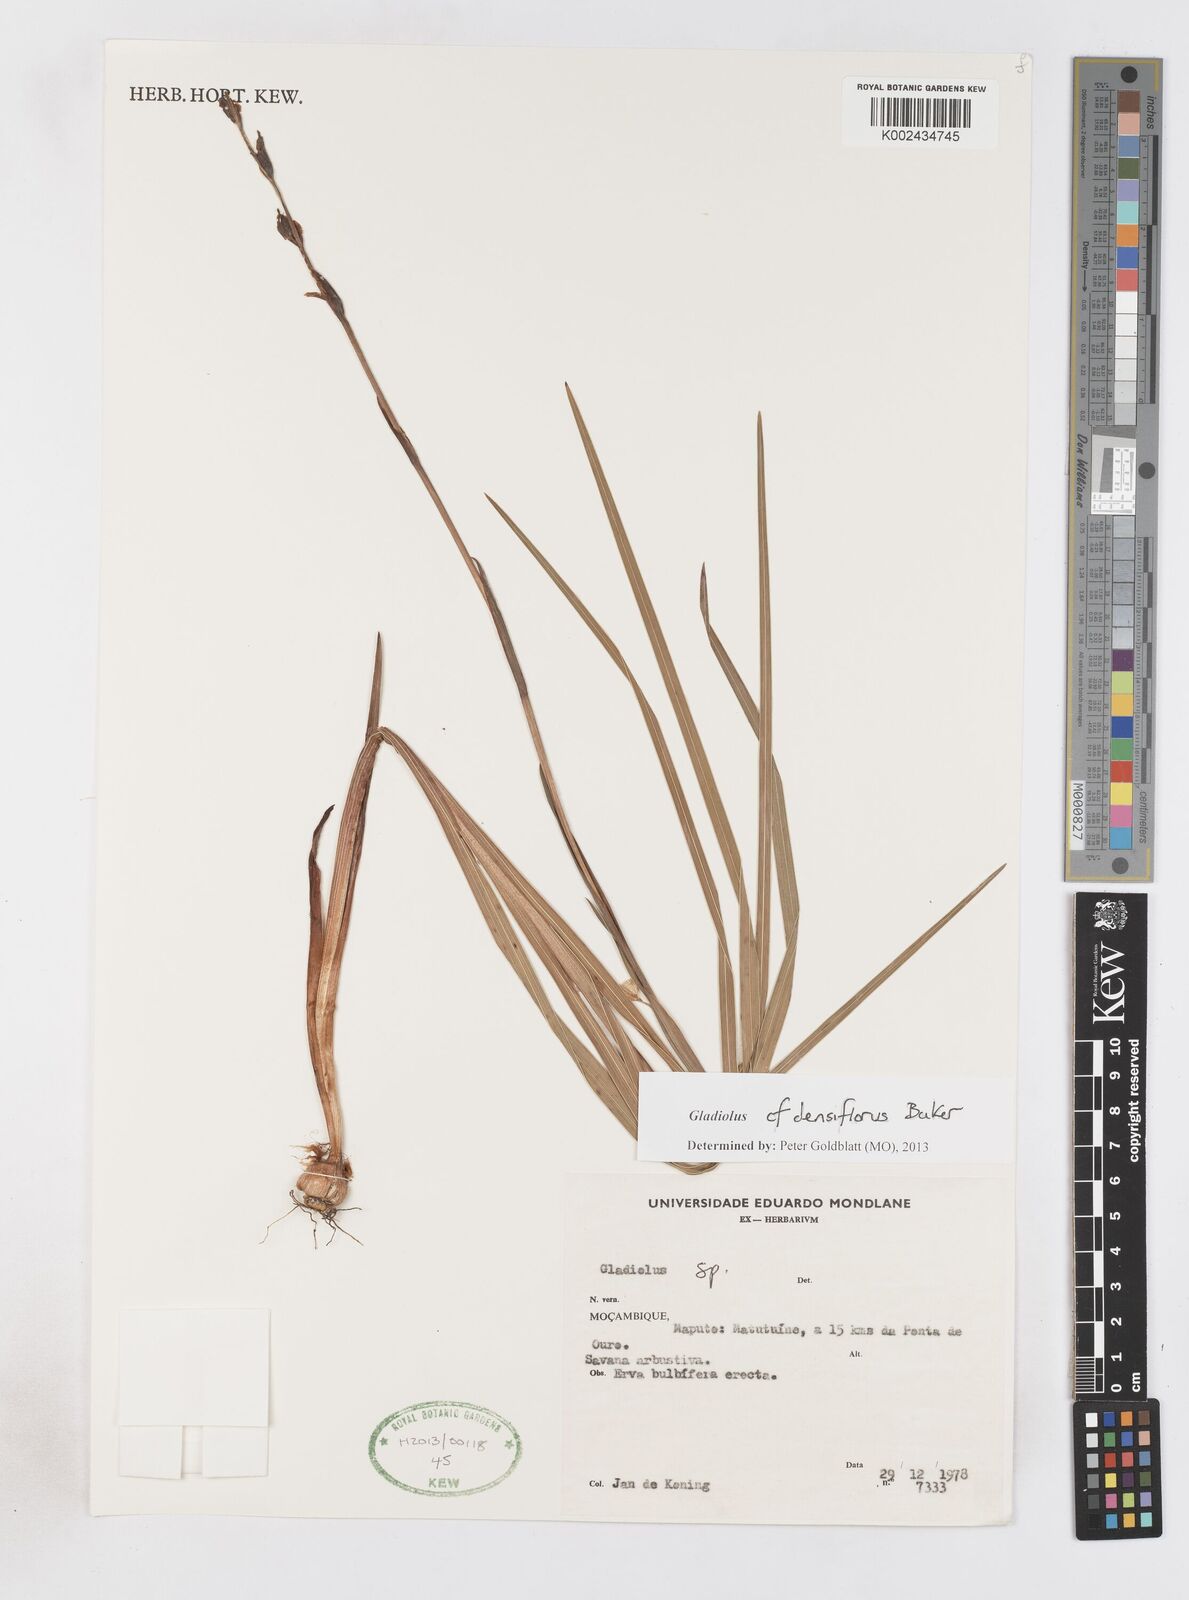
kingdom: Plantae
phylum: Tracheophyta
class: Liliopsida
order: Asparagales
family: Iridaceae
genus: Gladiolus
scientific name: Gladiolus densiflorus
